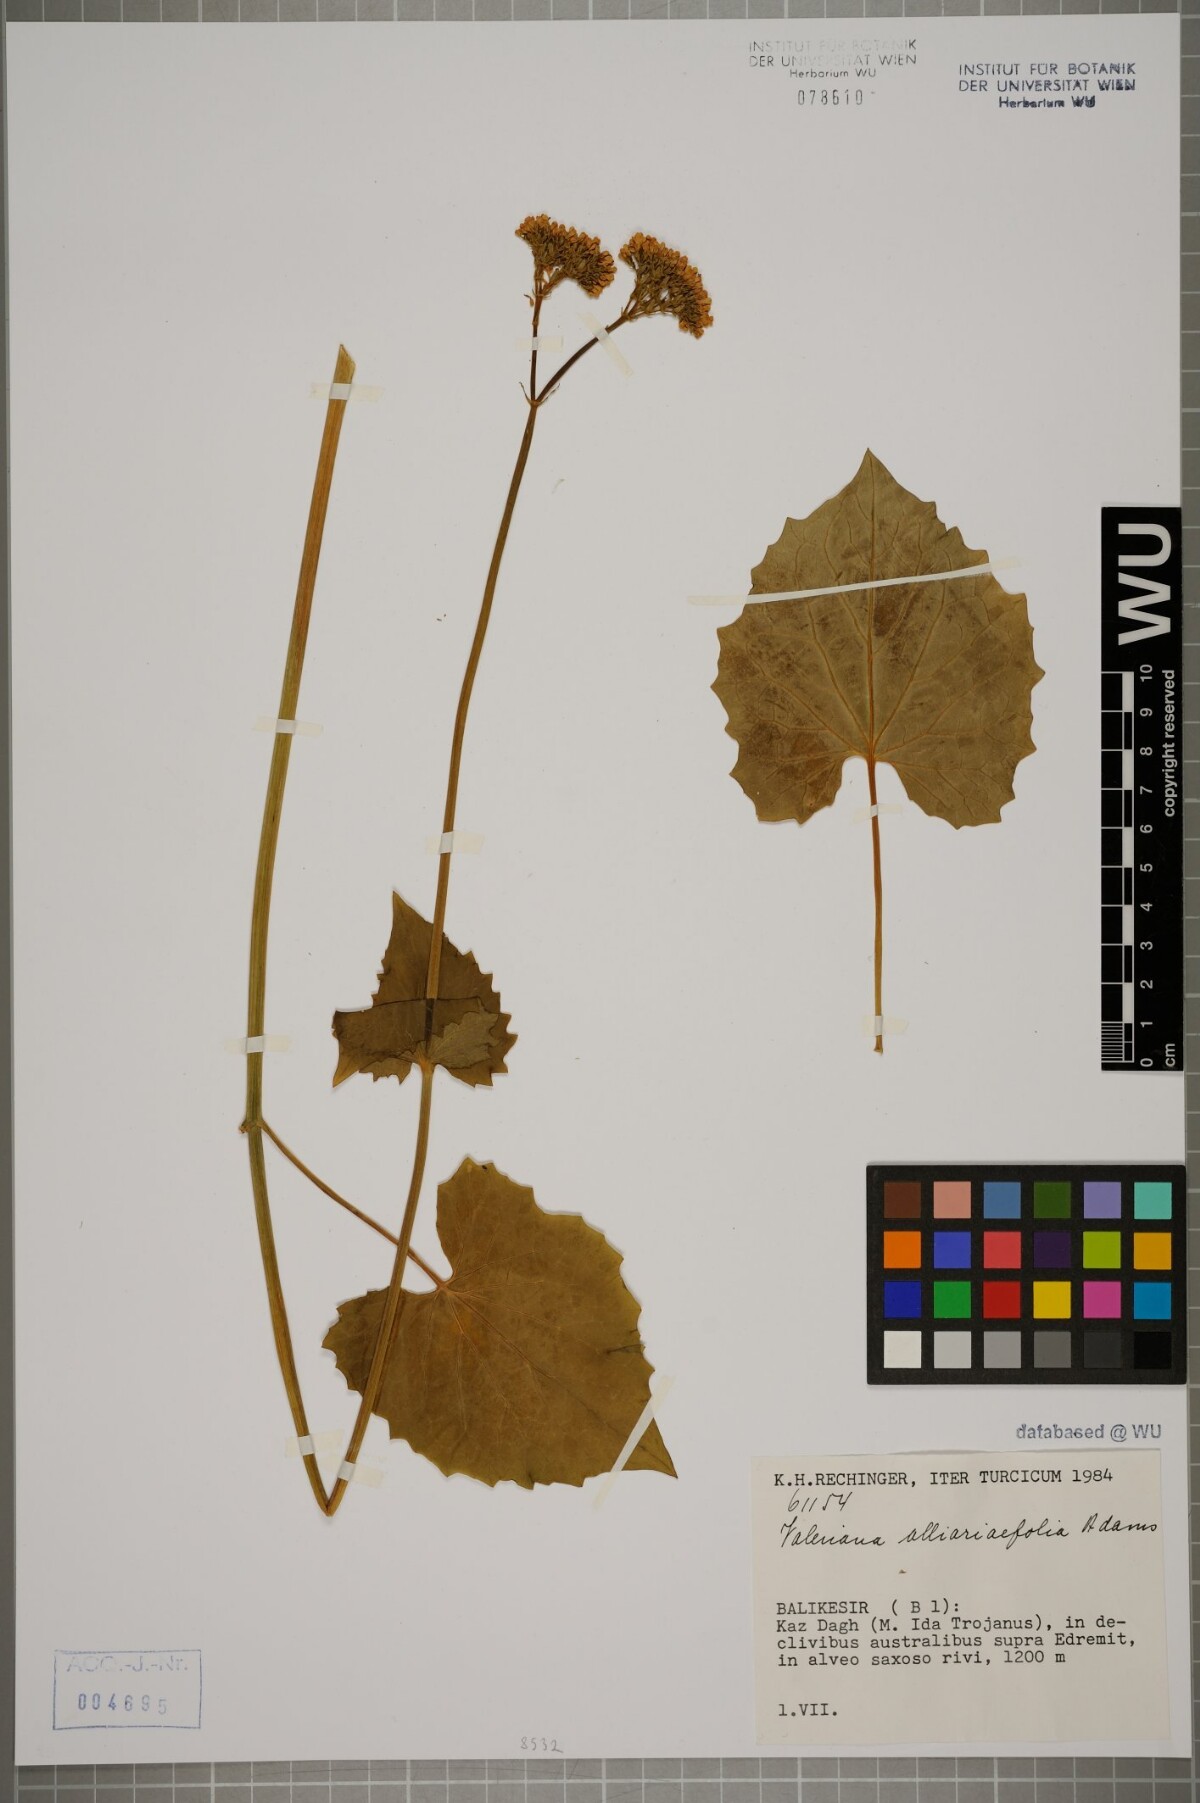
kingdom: Plantae
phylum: Tracheophyta
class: Magnoliopsida
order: Dipsacales
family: Caprifoliaceae
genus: Valeriana
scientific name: Valeriana alliariifolia
